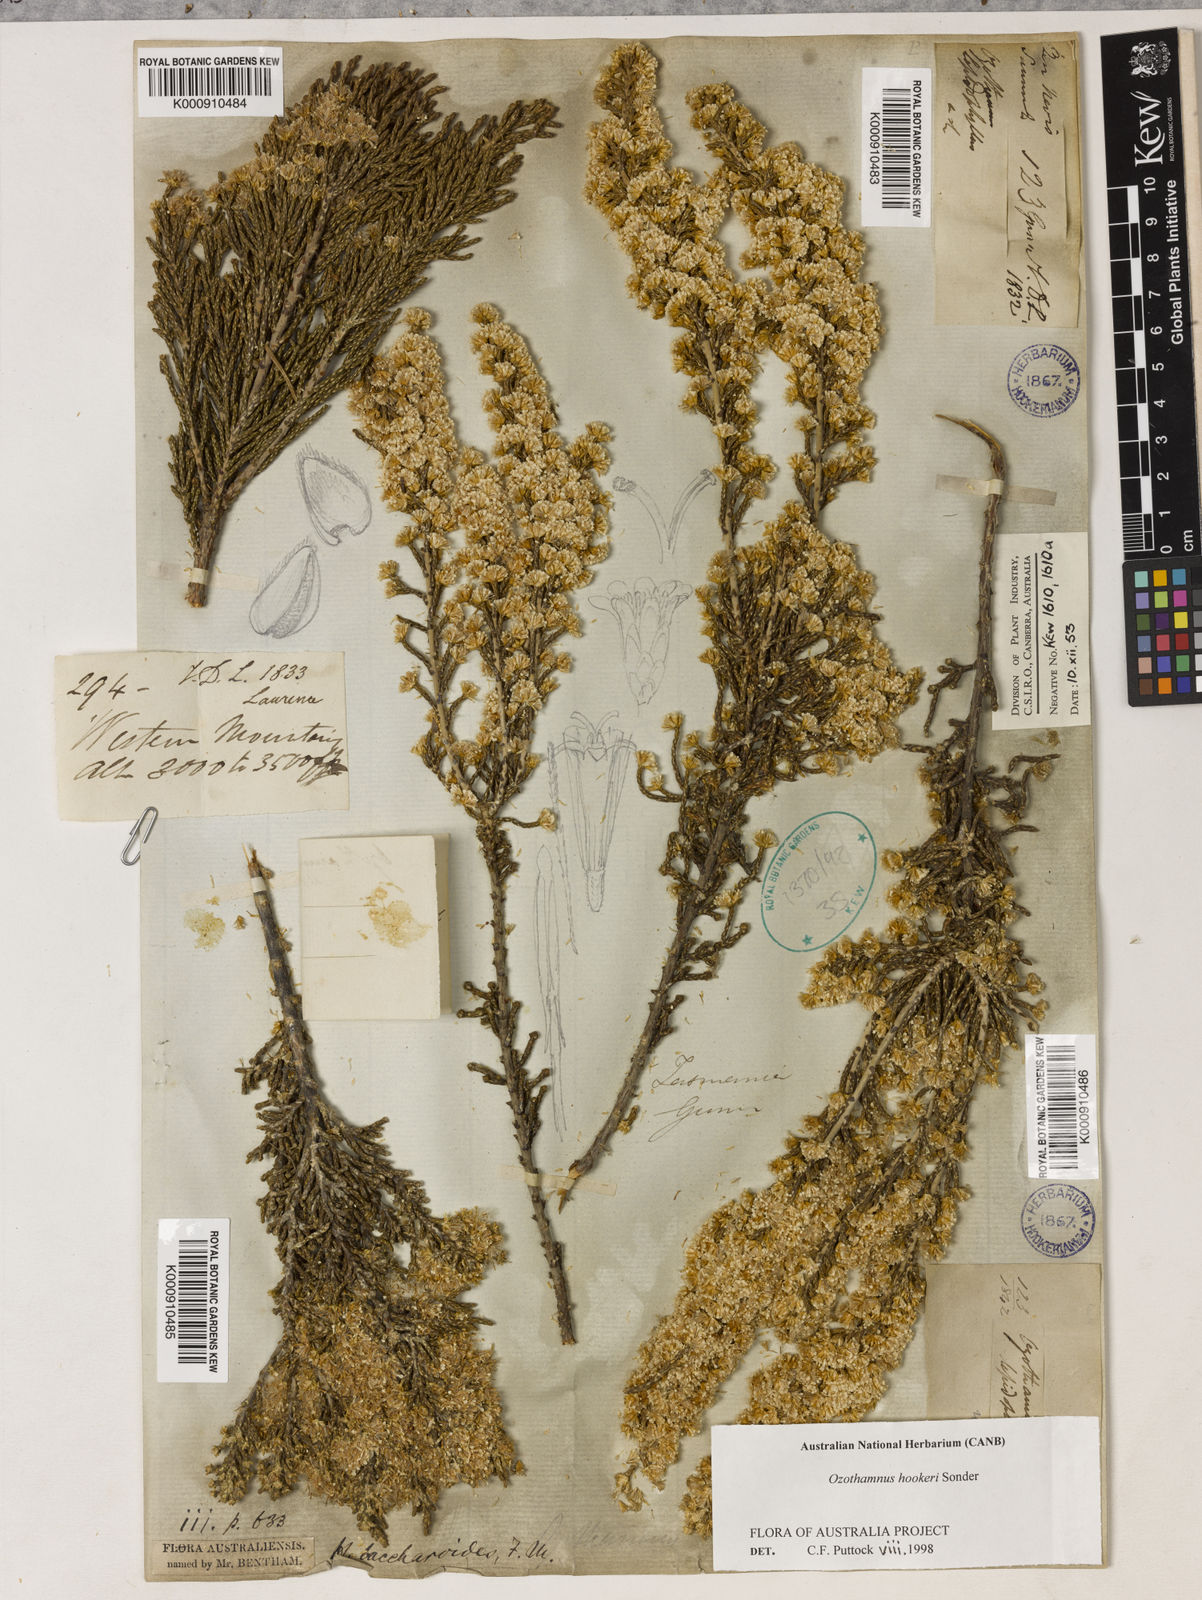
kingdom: Plantae
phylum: Tracheophyta
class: Magnoliopsida
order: Asterales
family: Asteraceae
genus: Ozothamnus
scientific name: Ozothamnus hookeri
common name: Kerosene-bush
